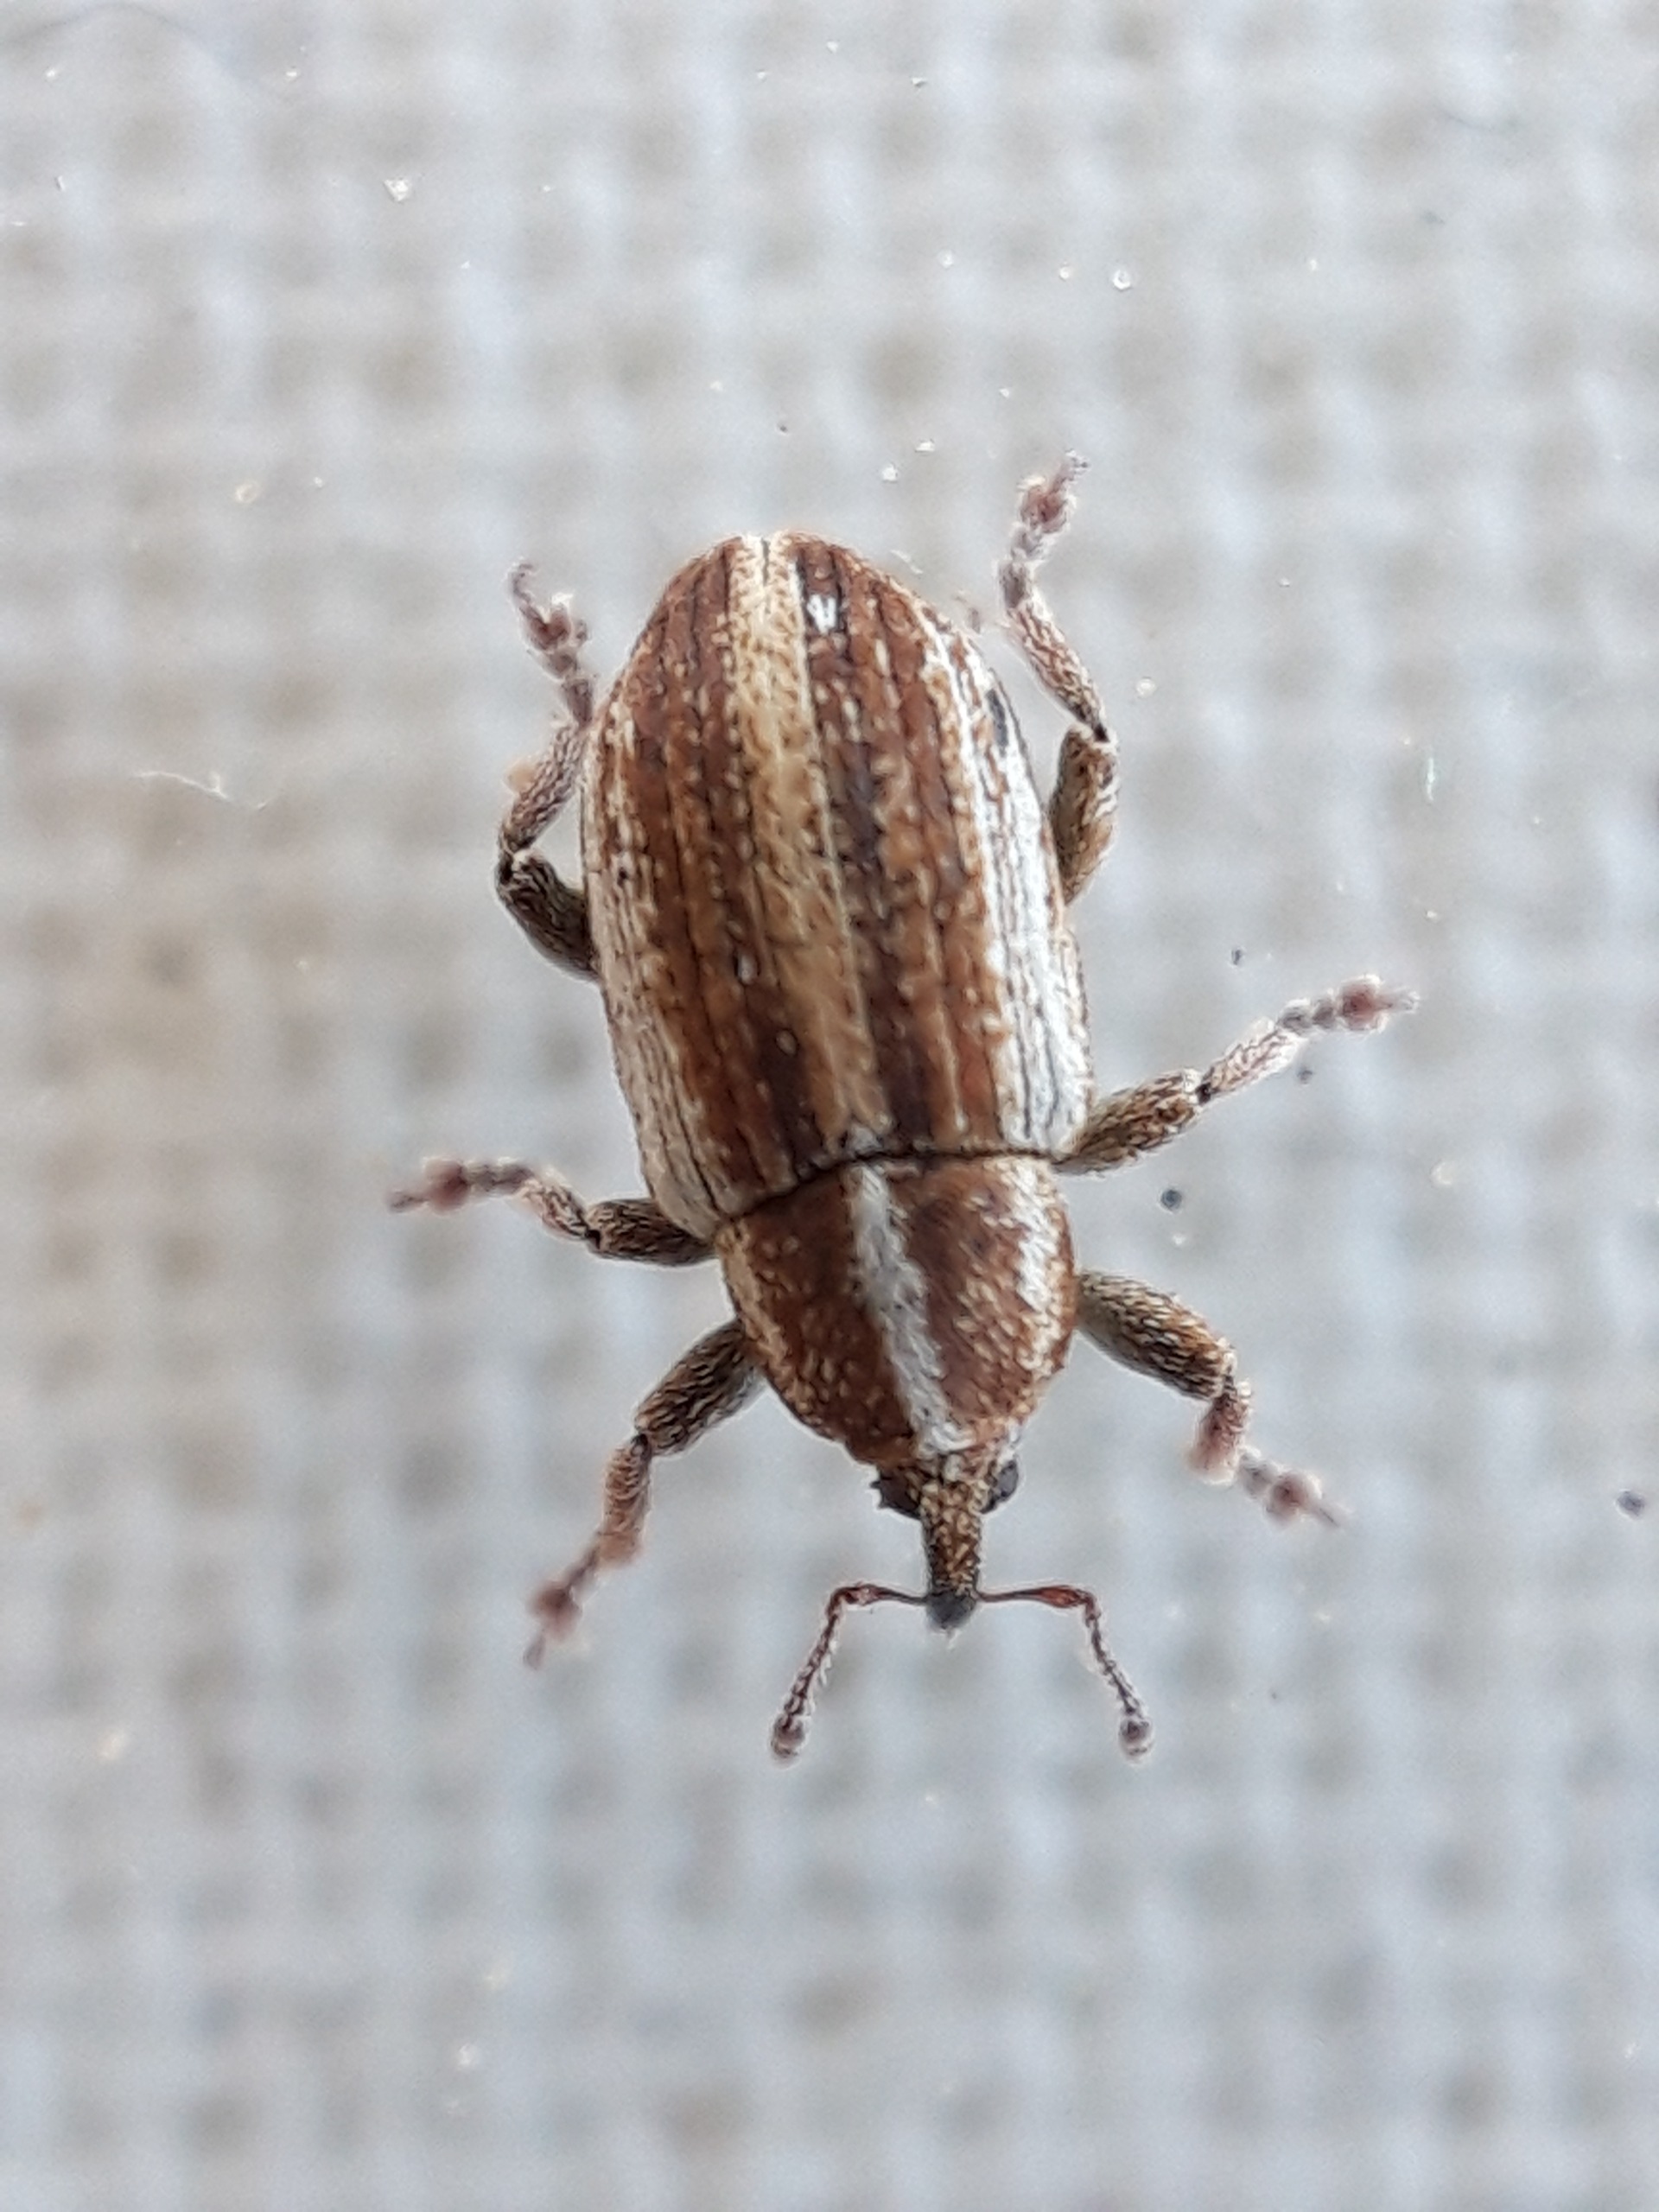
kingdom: Animalia
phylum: Arthropoda
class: Insecta
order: Coleoptera
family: Curculionidae
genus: Tychius
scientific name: Tychius parallelus
